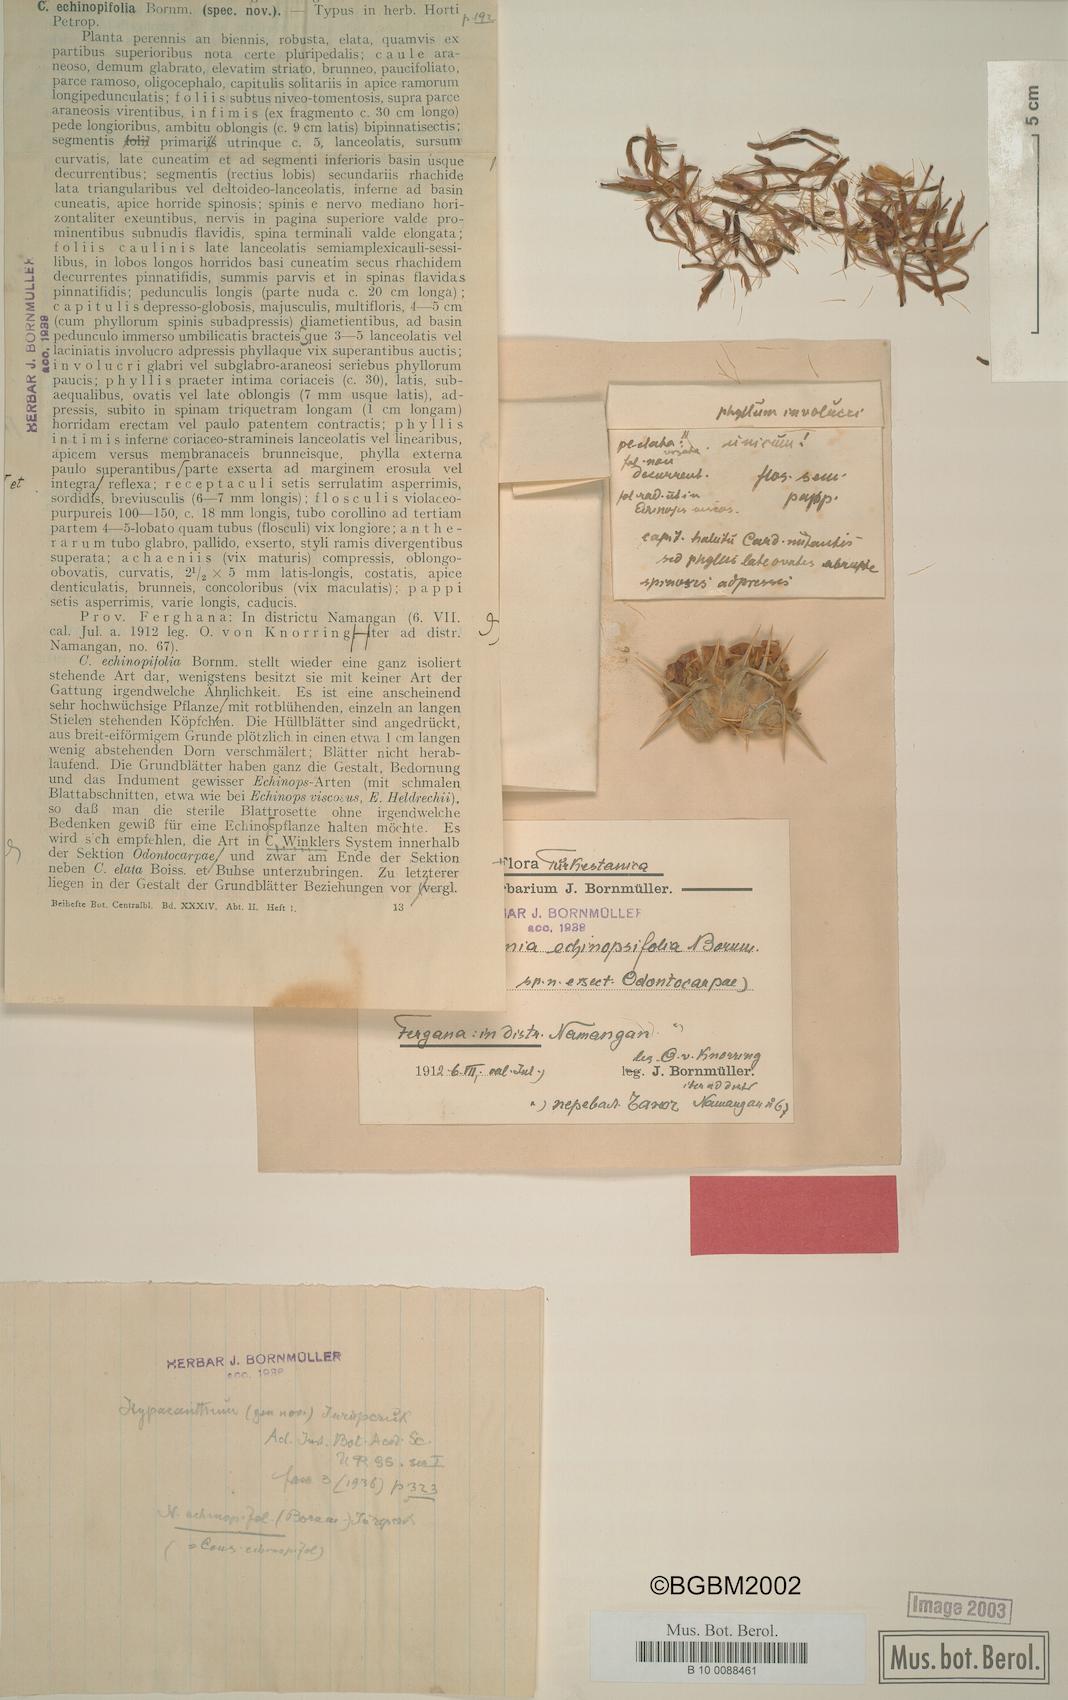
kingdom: Plantae
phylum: Tracheophyta
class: Magnoliopsida
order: Asterales
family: Asteraceae
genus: Arctium
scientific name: Arctium echinopifolium
